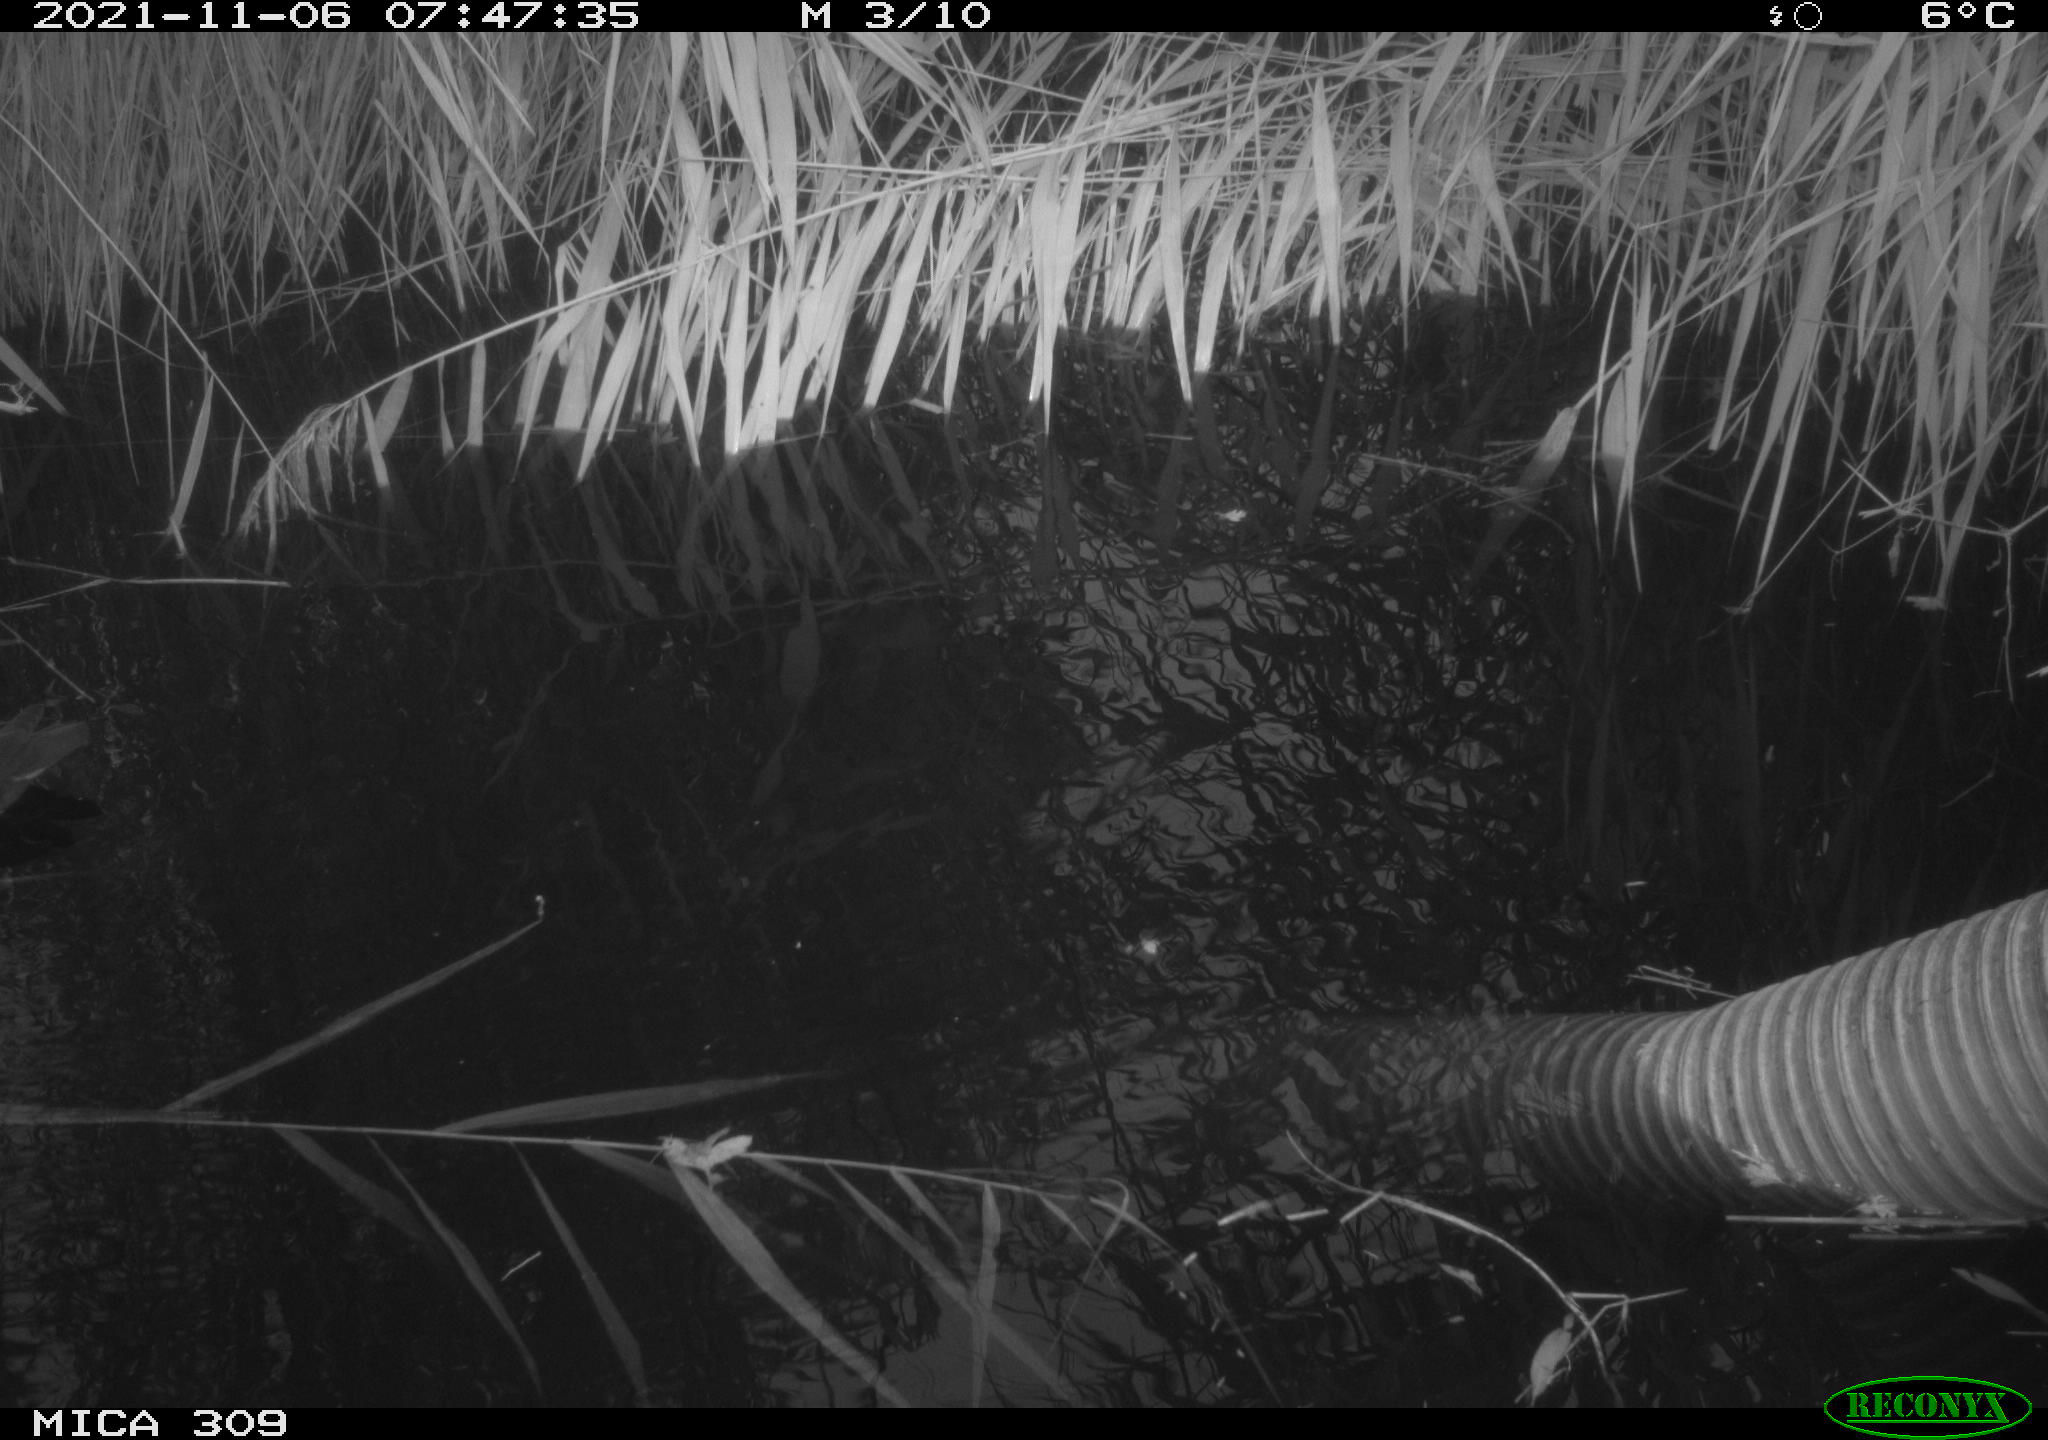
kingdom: Animalia
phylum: Chordata
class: Aves
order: Gruiformes
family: Rallidae
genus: Gallinula
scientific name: Gallinula chloropus
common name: Common moorhen
